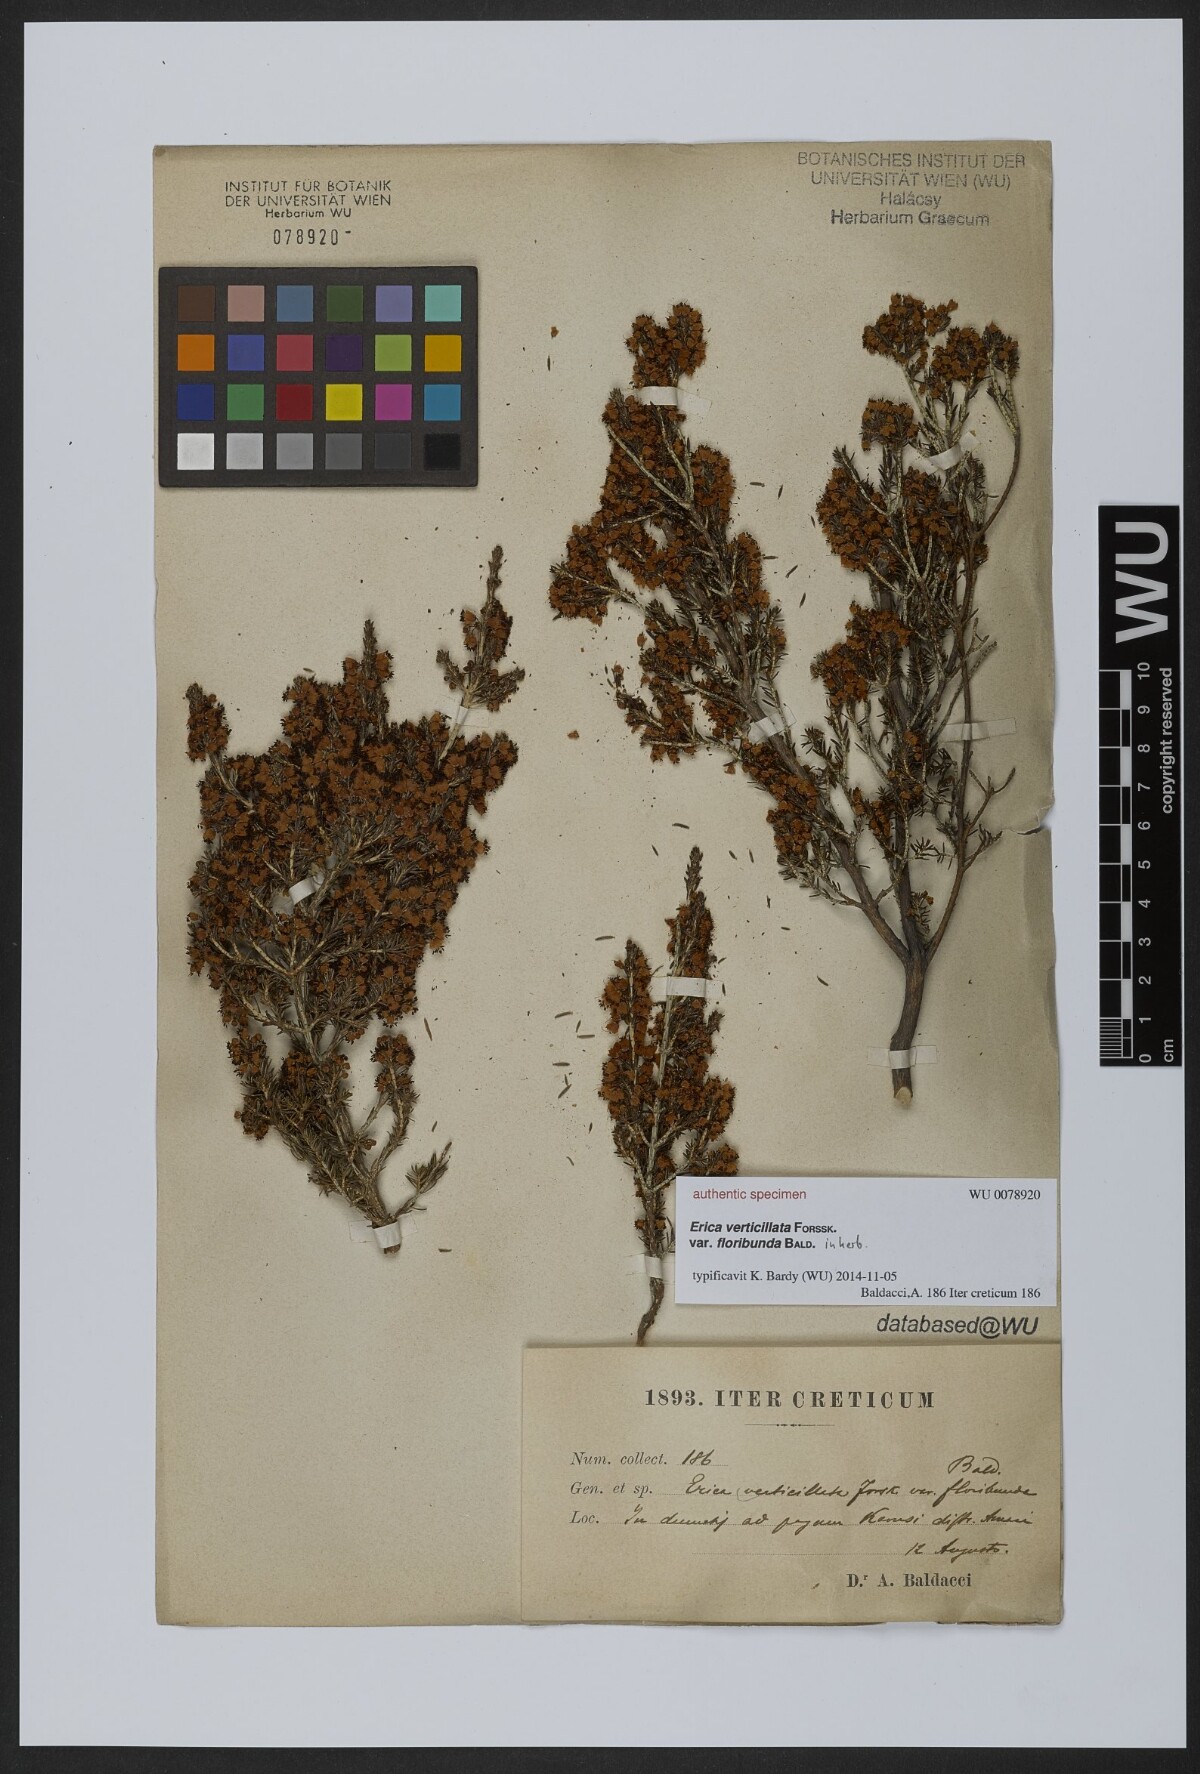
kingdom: Plantae
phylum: Tracheophyta
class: Magnoliopsida
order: Ericales
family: Ericaceae
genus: Erica
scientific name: Erica verticillata
